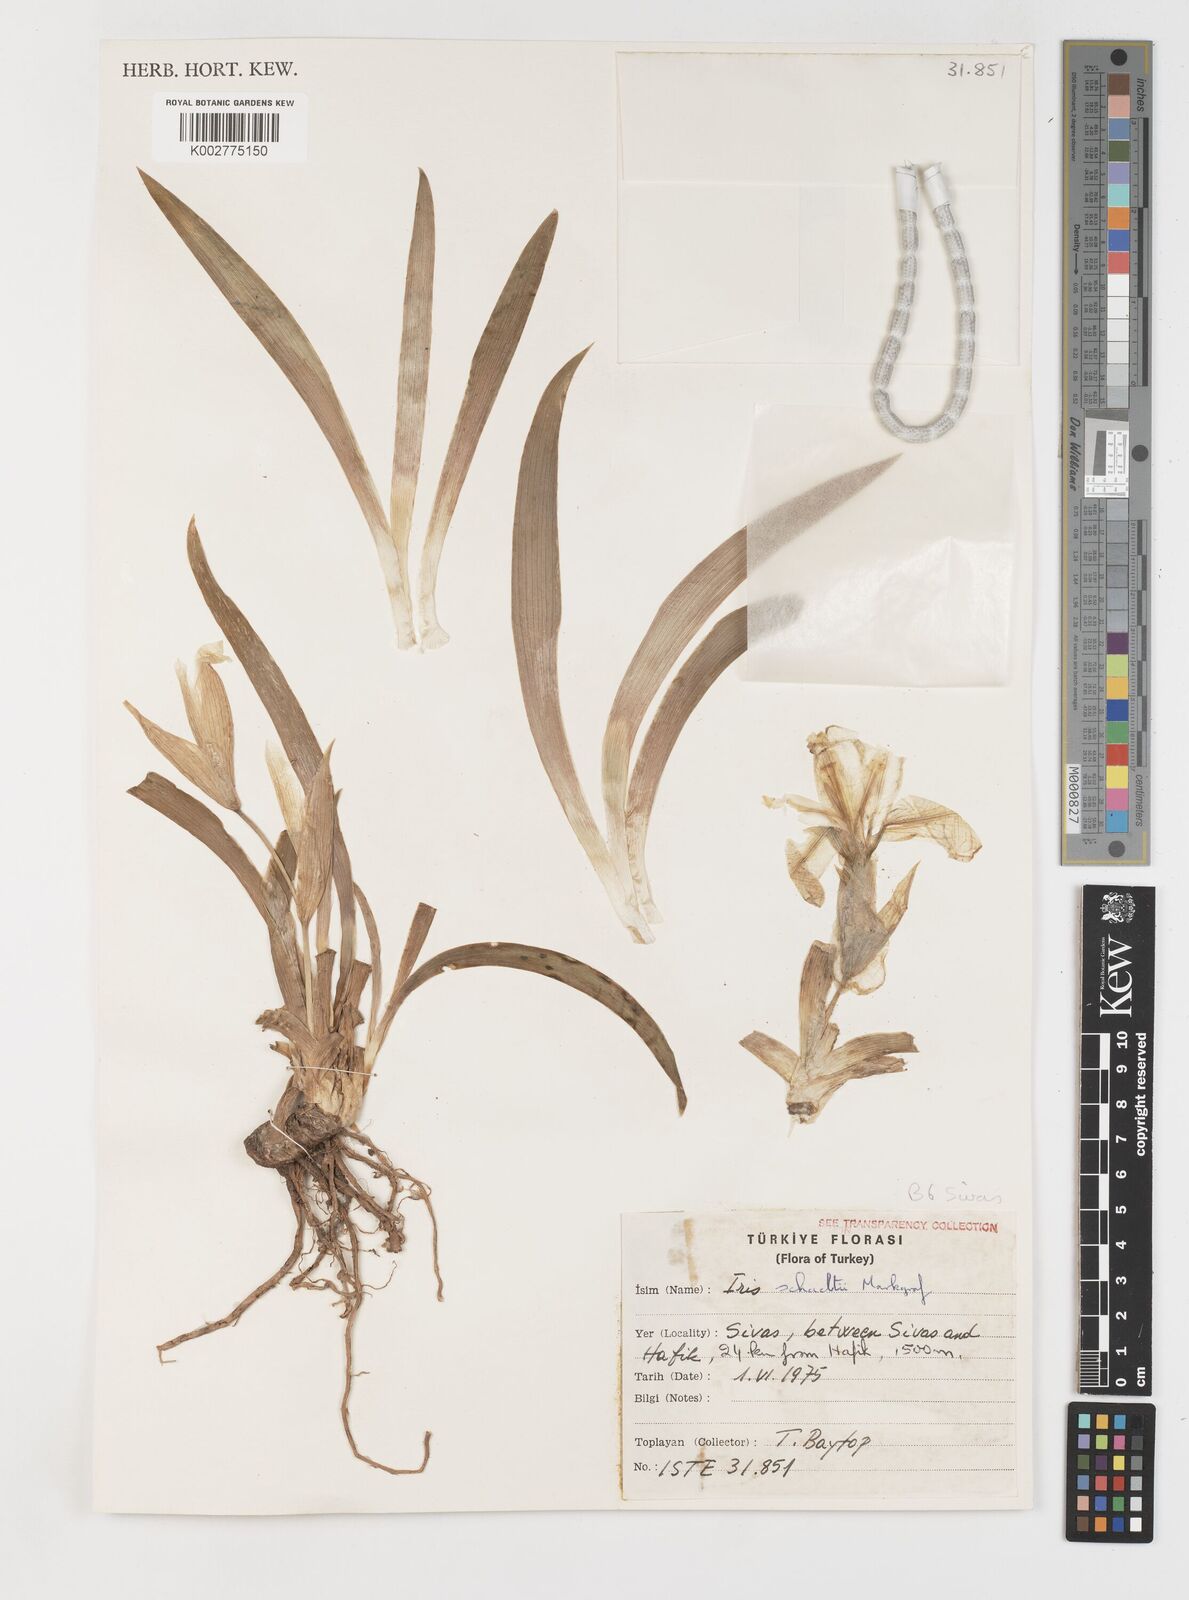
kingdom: Plantae
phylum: Tracheophyta
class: Liliopsida
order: Asparagales
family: Iridaceae
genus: Iris
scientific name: Iris schachtii
